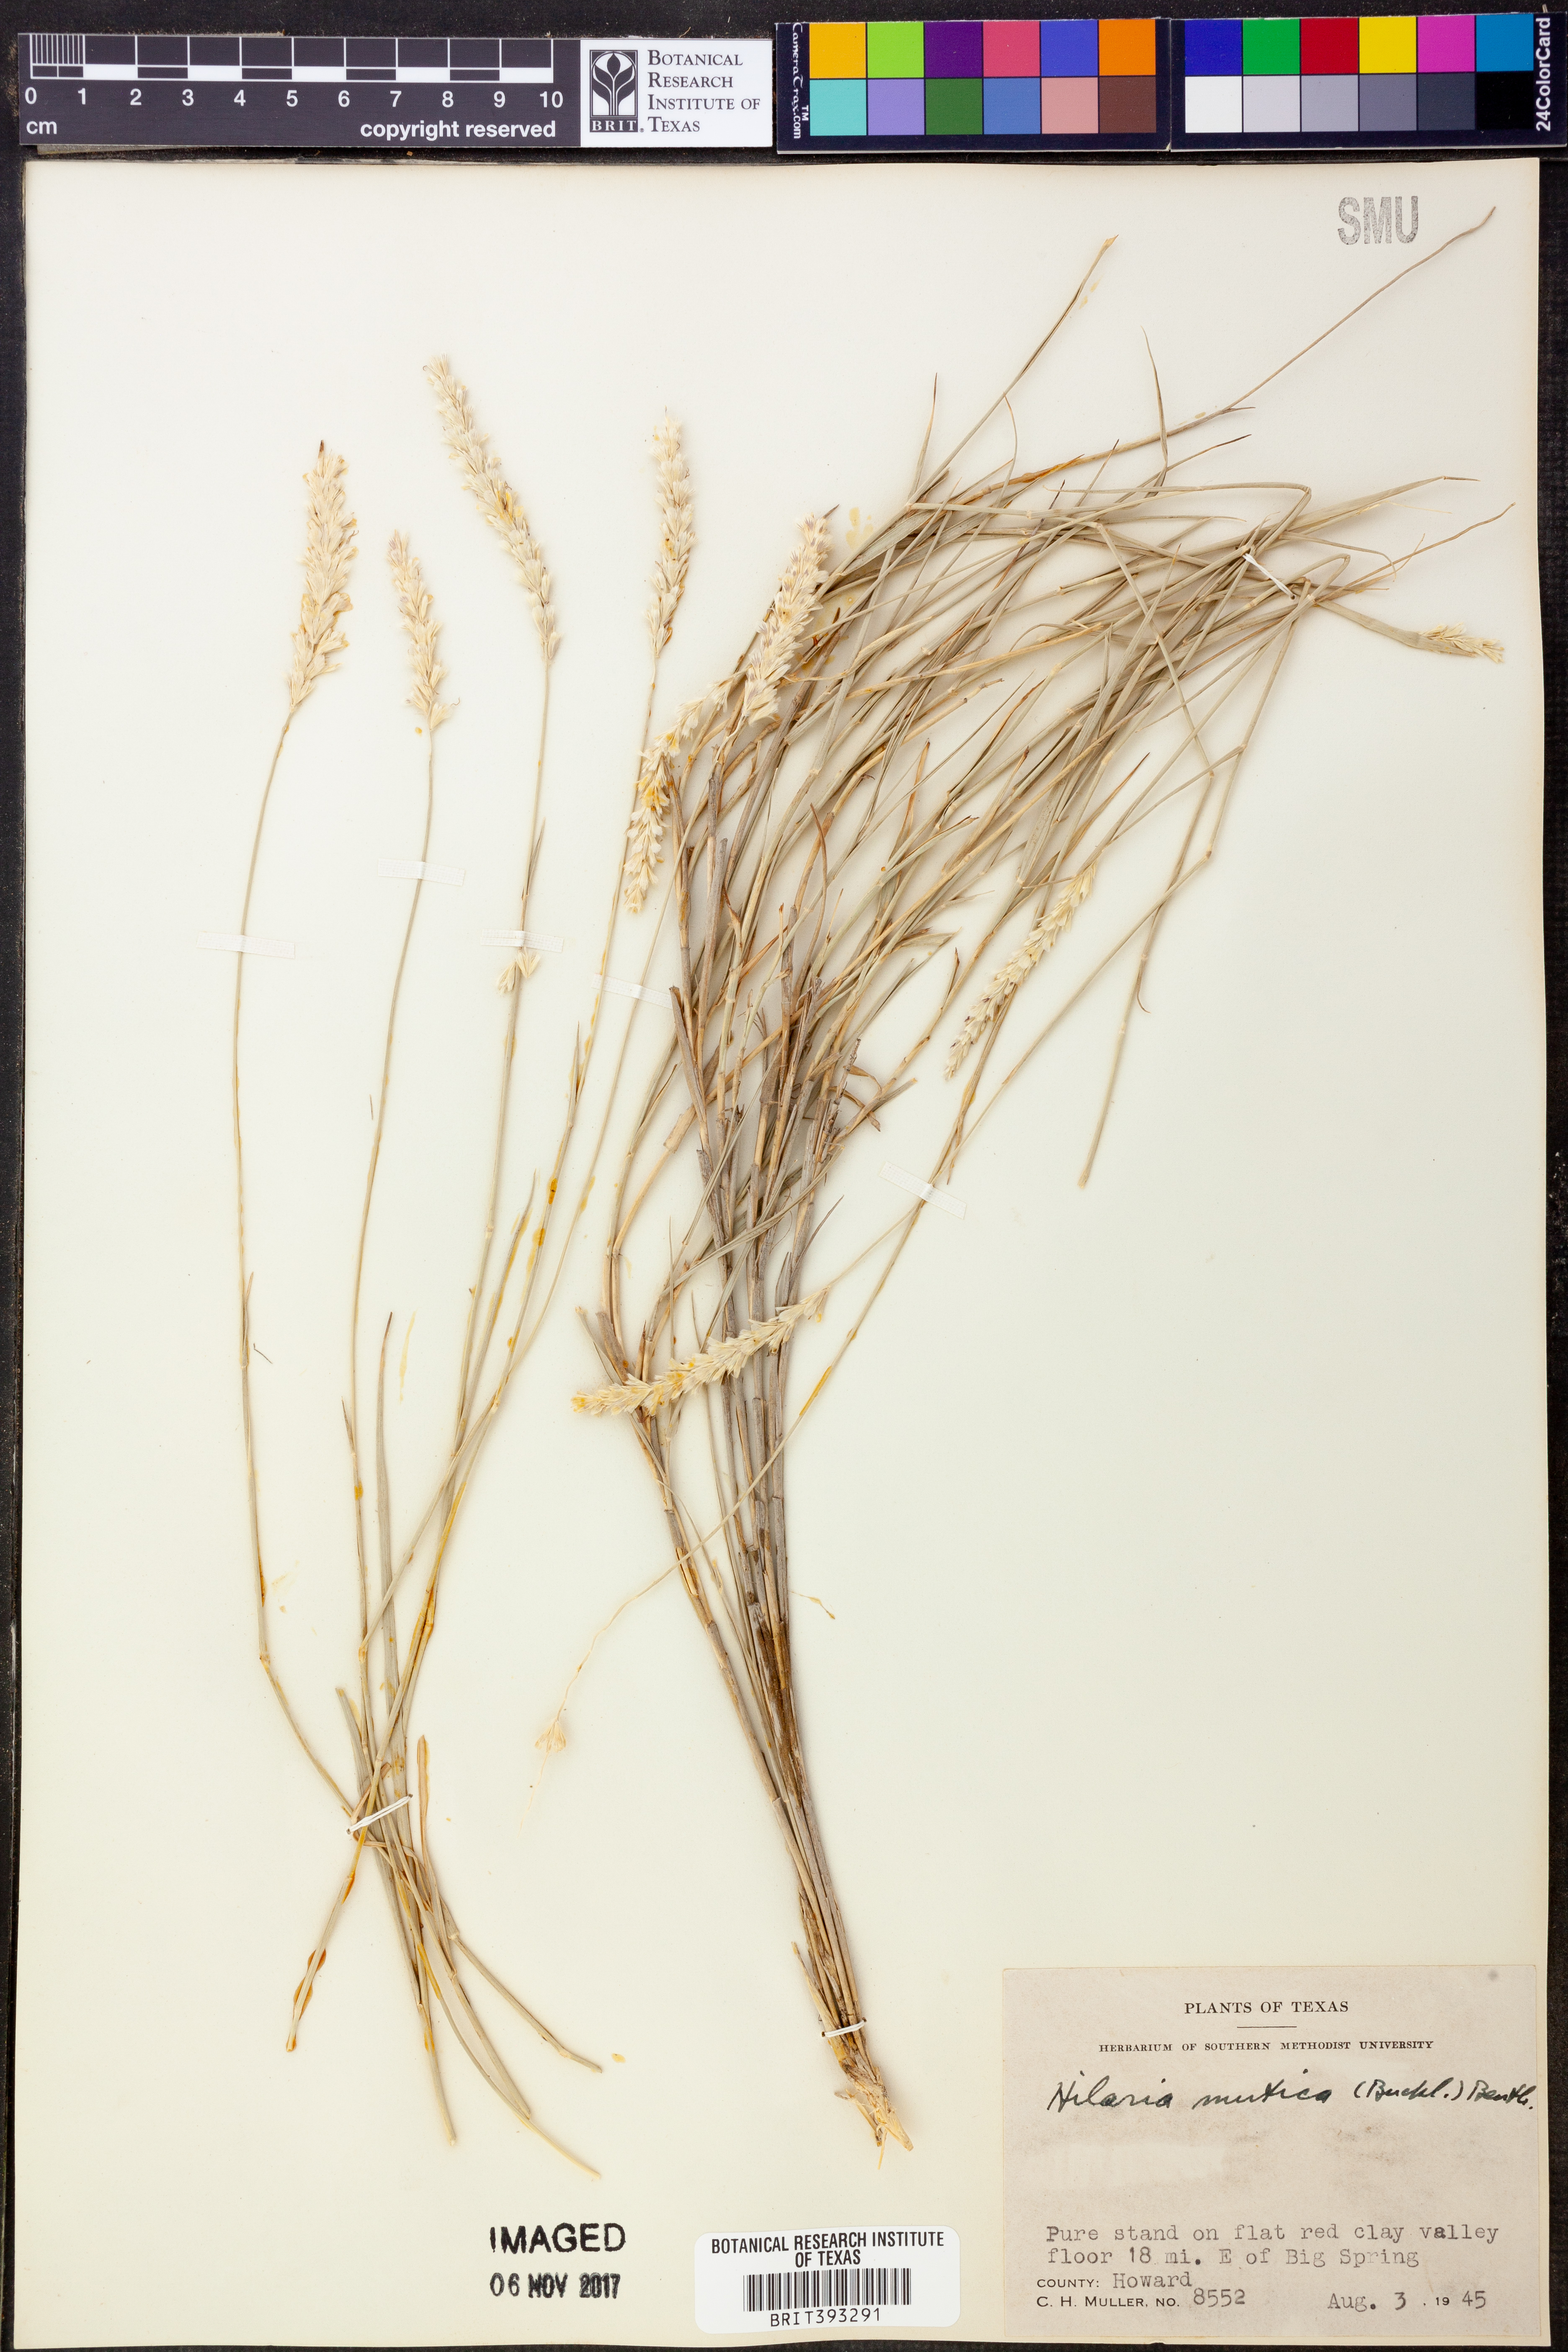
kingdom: Plantae
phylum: Tracheophyta
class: Liliopsida
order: Poales
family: Poaceae
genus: Hilaria
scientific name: Hilaria mutica
